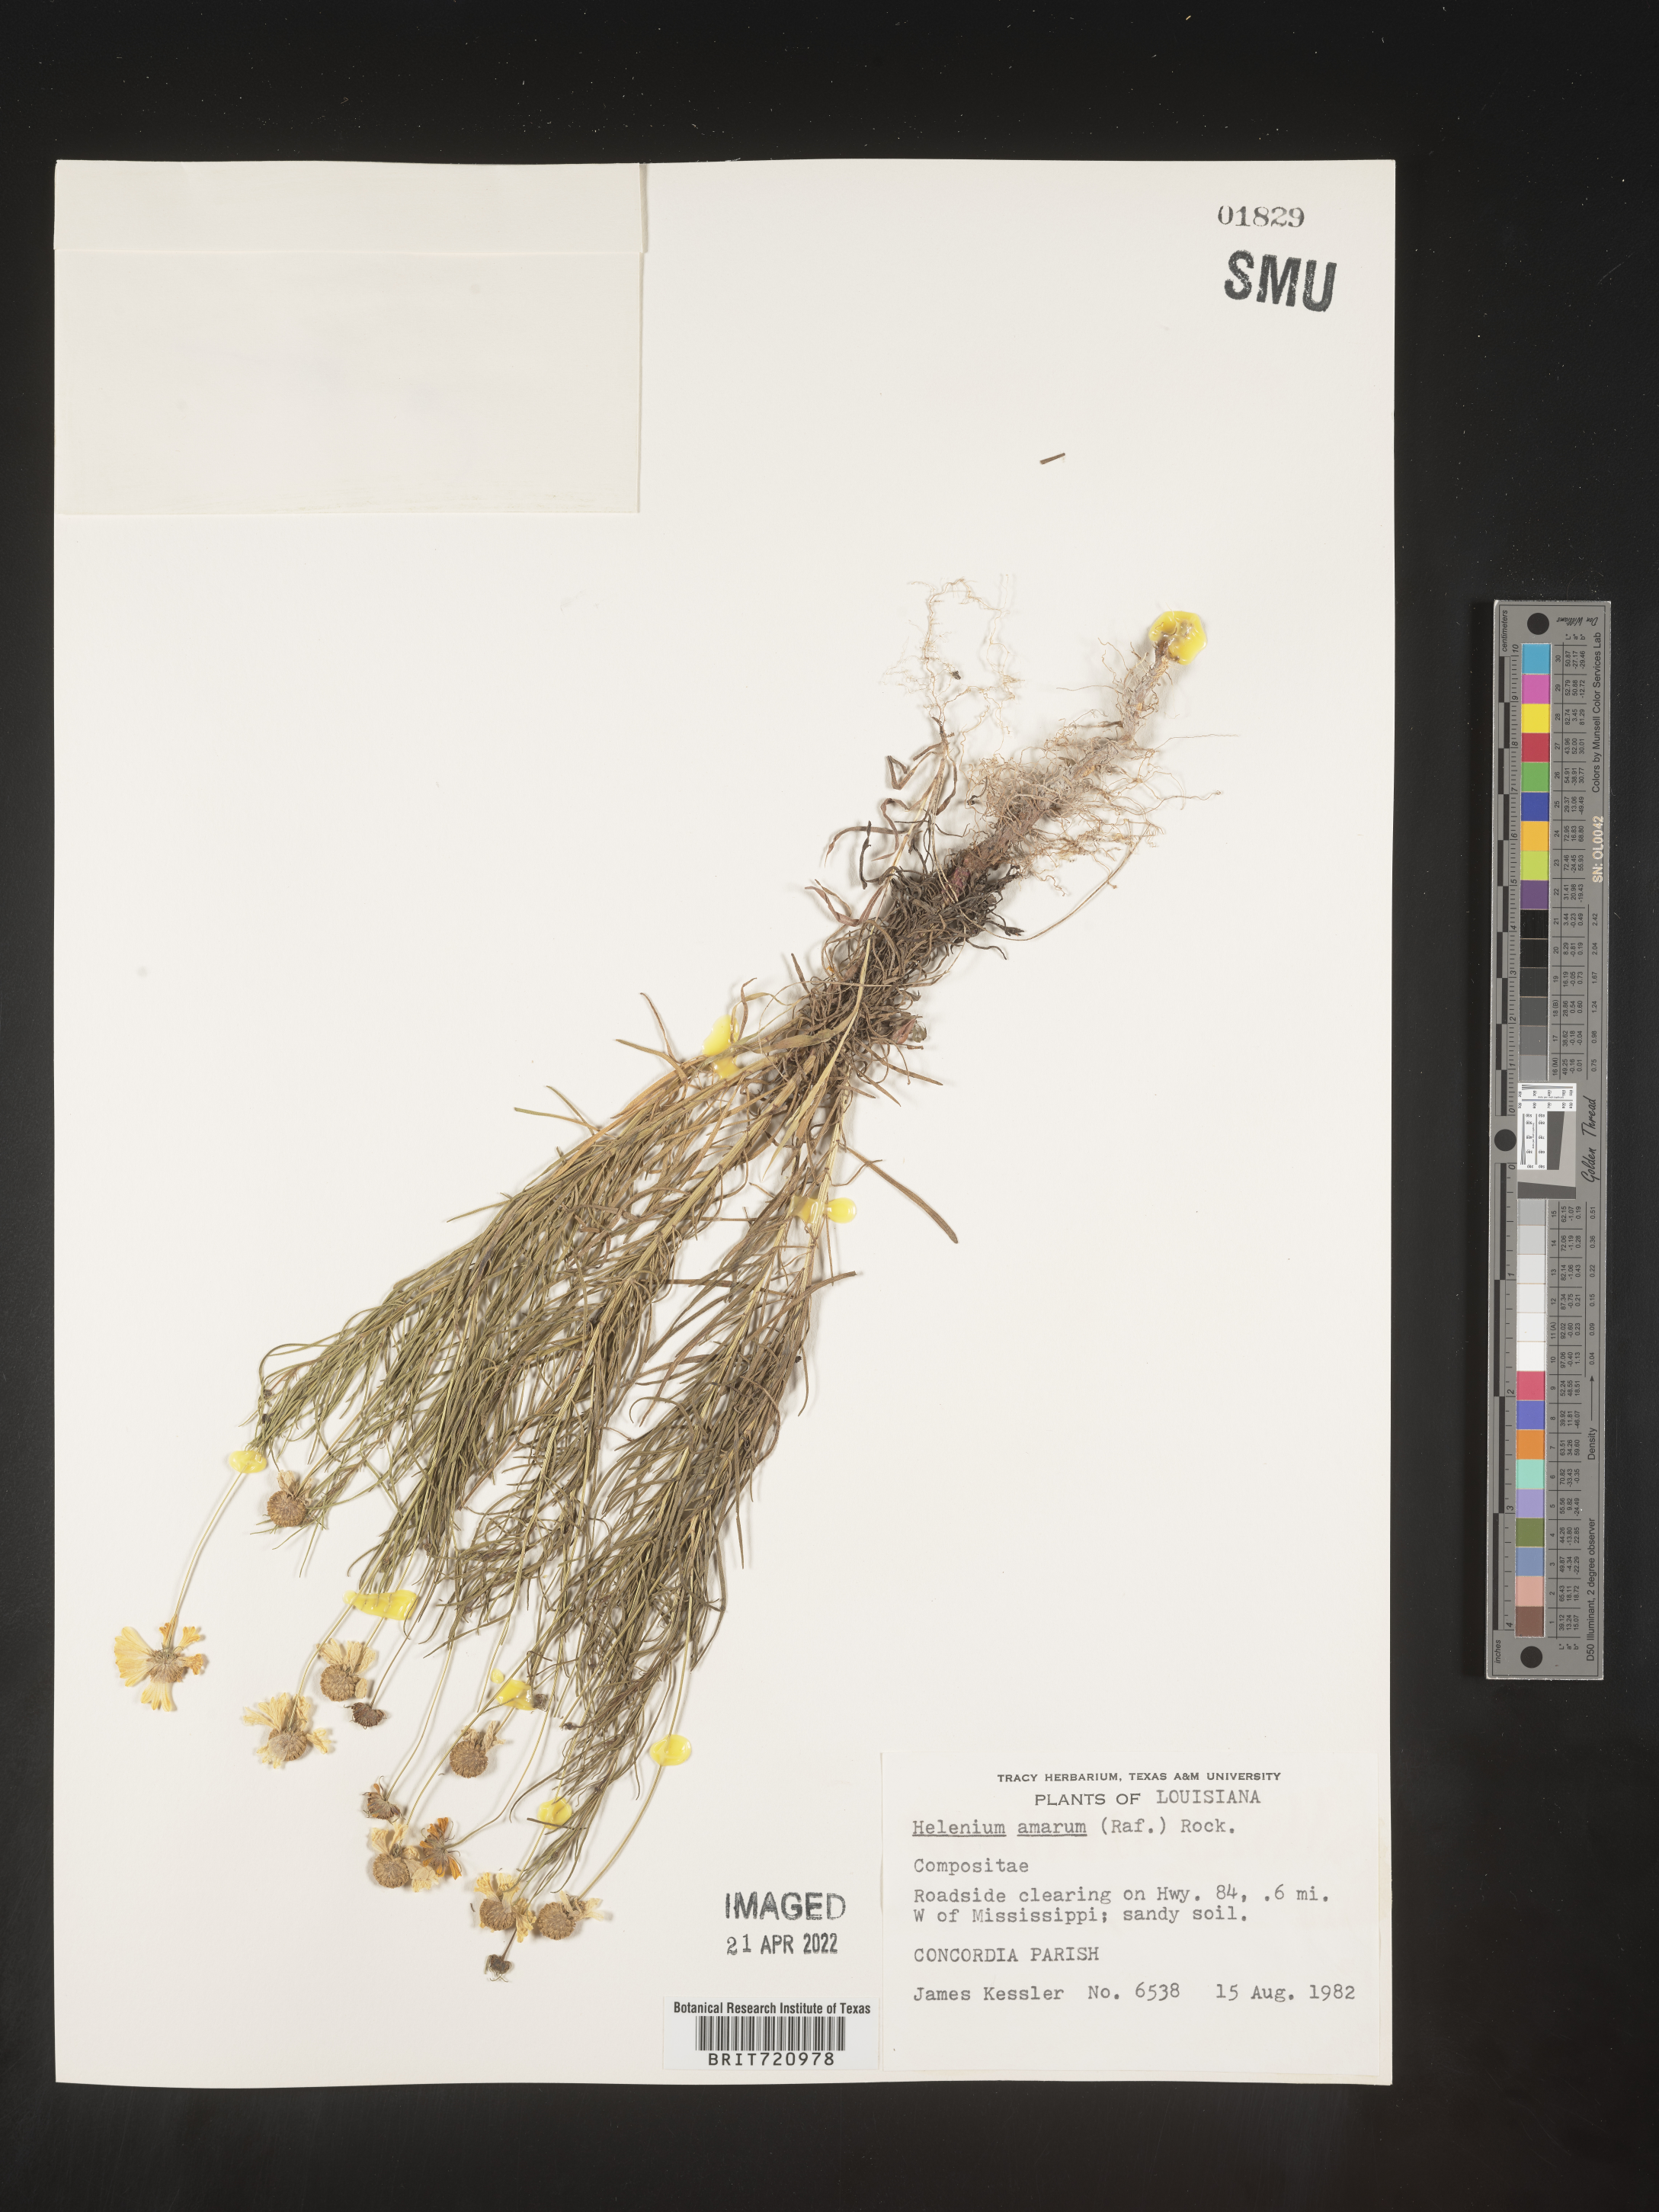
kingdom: Plantae
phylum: Tracheophyta
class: Magnoliopsida
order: Asterales
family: Asteraceae
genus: Helenium
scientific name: Helenium amarum
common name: Bitter sneezeweed
